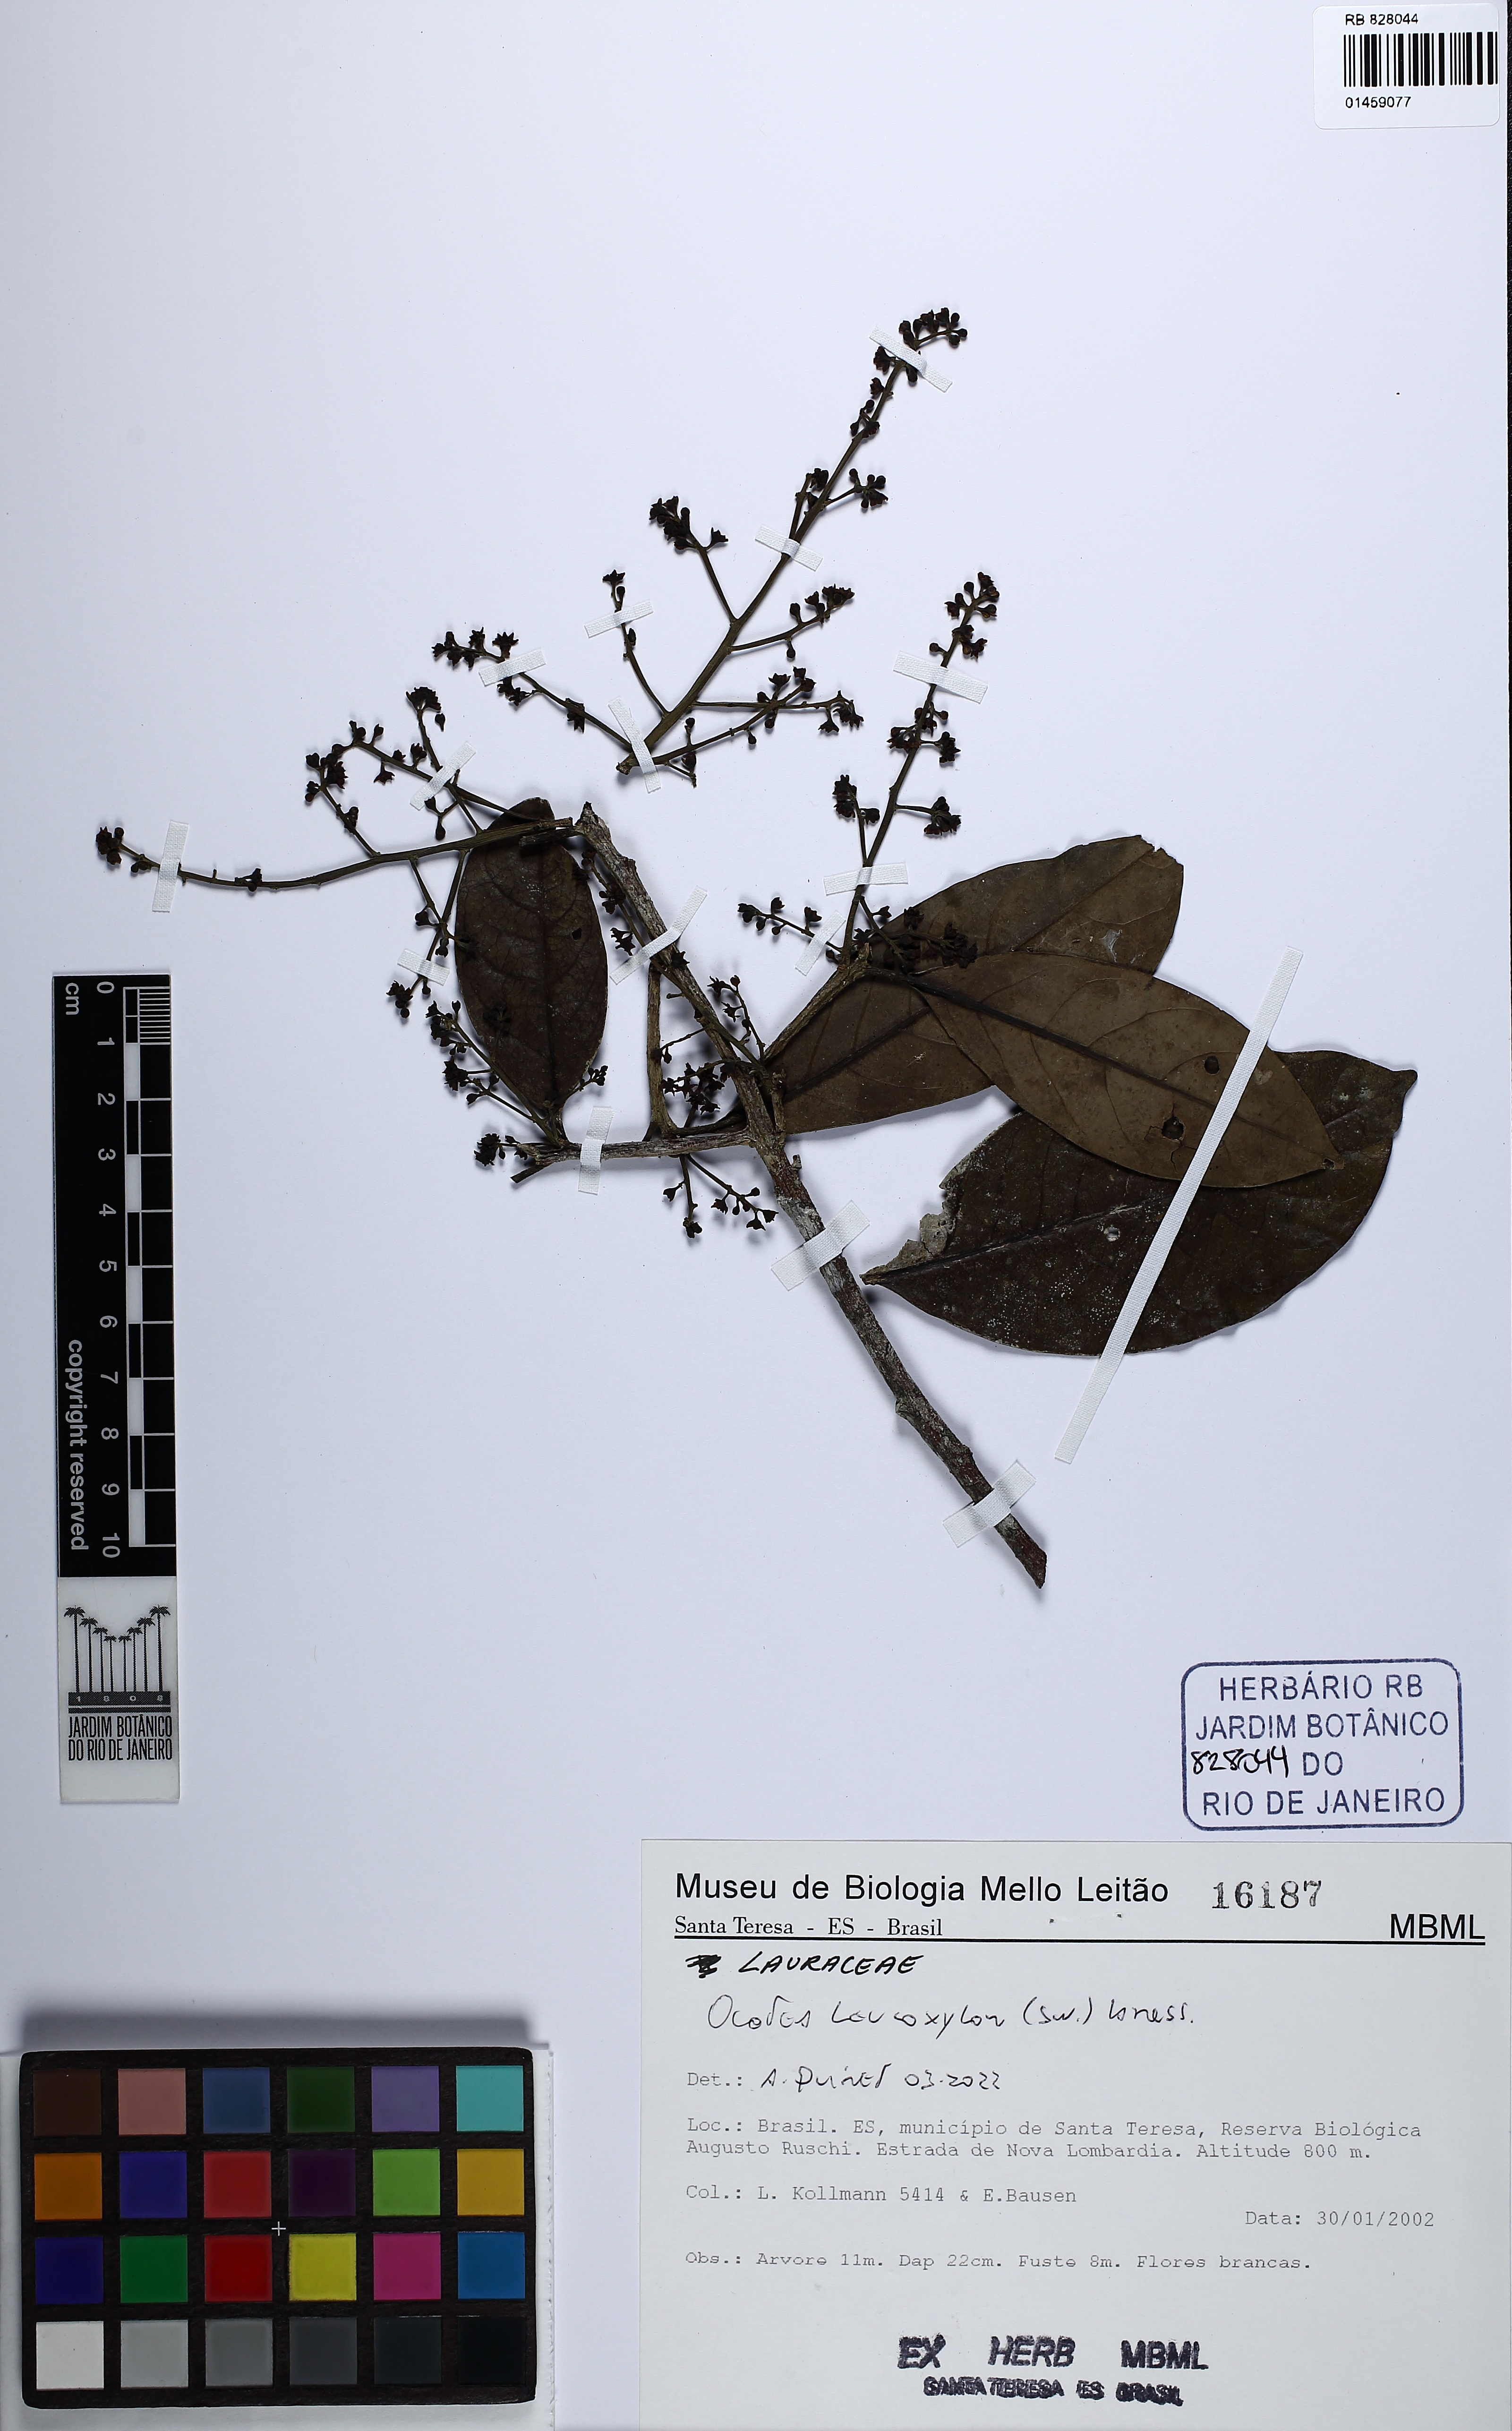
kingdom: Plantae
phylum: Tracheophyta
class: Magnoliopsida
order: Laurales
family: Lauraceae
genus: Ocotea
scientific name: Ocotea leucoxylon
